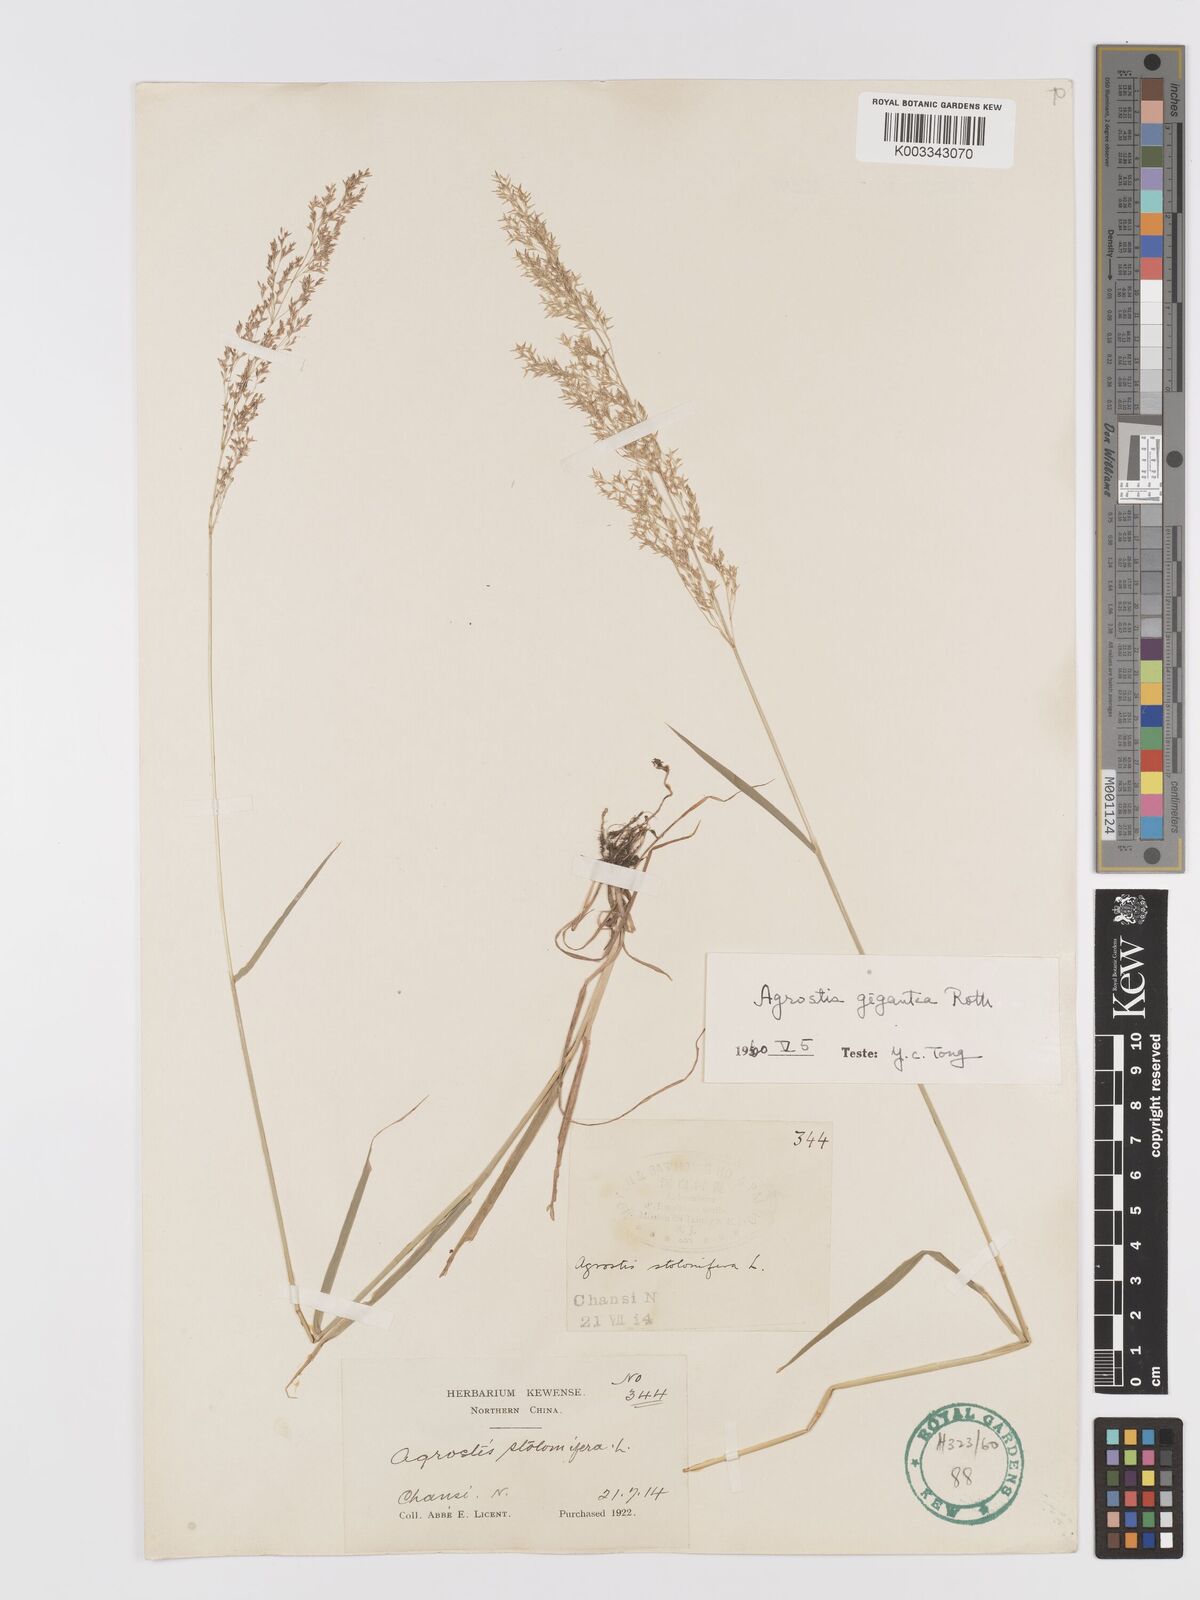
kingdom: Plantae
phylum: Tracheophyta
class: Liliopsida
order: Poales
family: Poaceae
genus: Agrostis
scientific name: Agrostis gigantea
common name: Black bent
